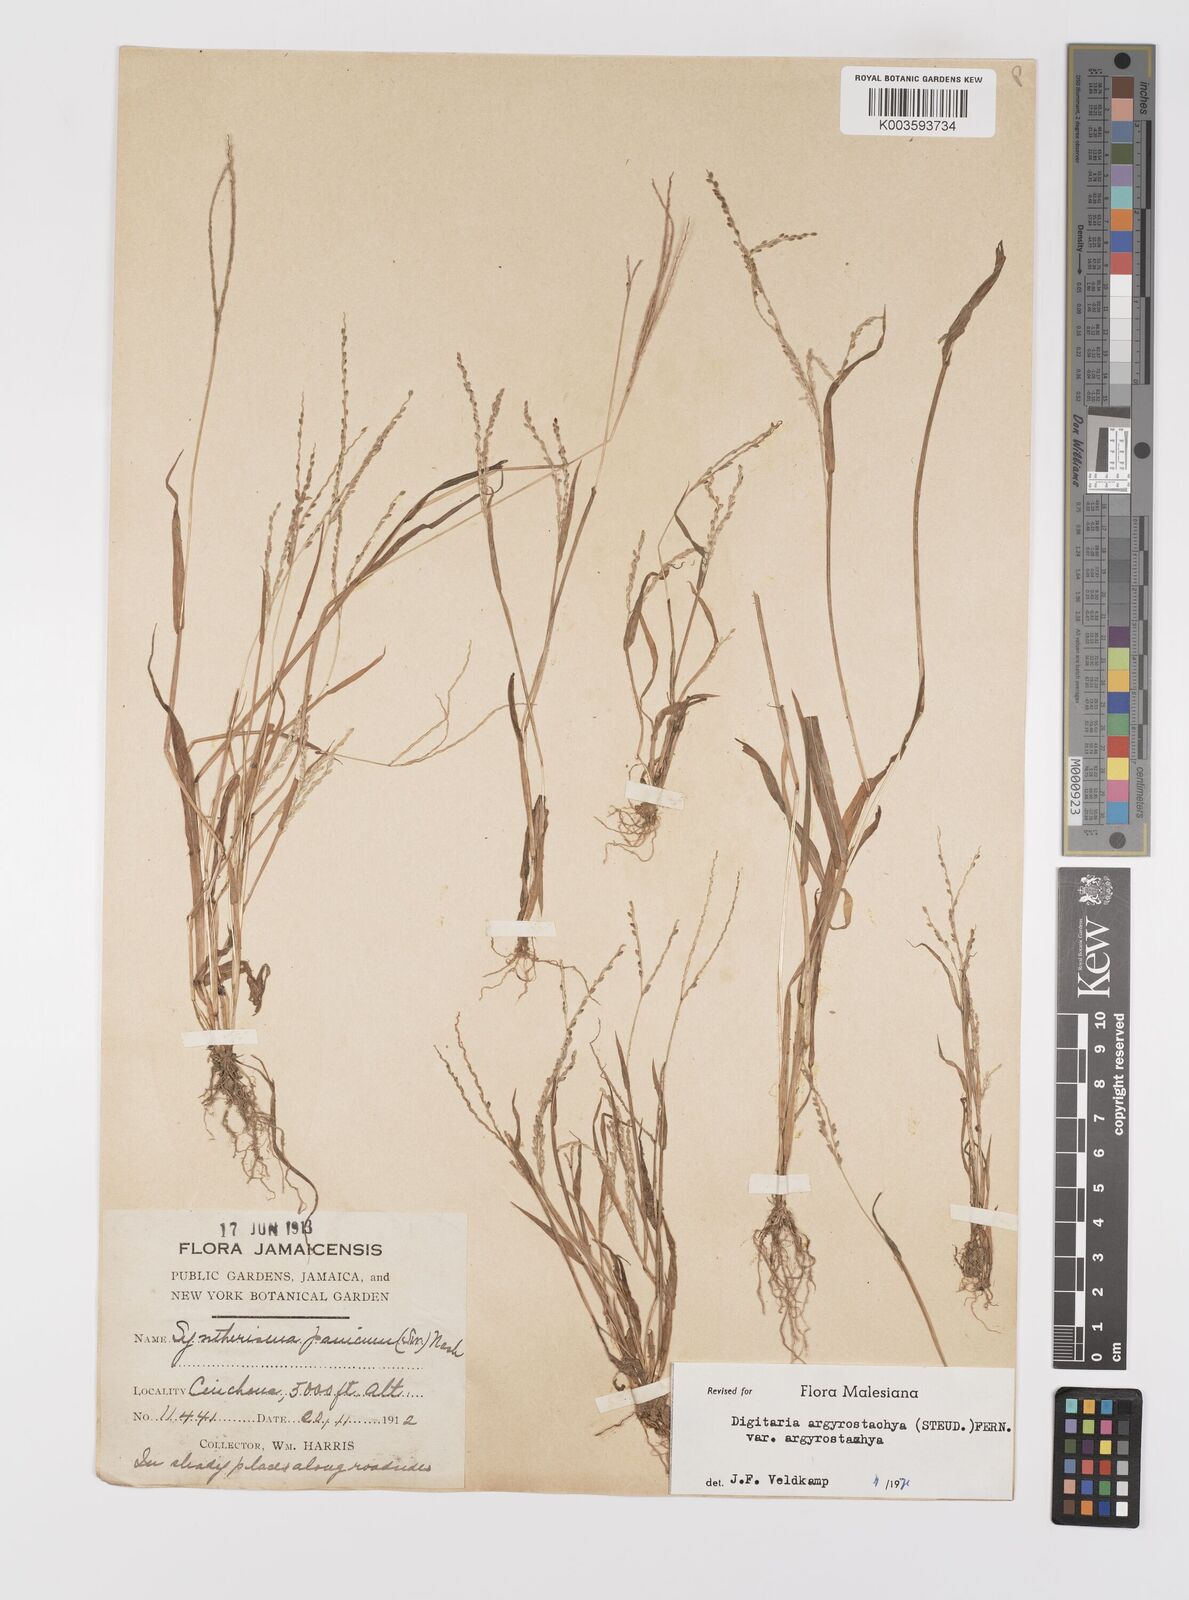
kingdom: Plantae
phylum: Tracheophyta
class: Liliopsida
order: Poales
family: Poaceae
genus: Digitaria
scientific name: Digitaria ternata
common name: Blackseed crabgrass
